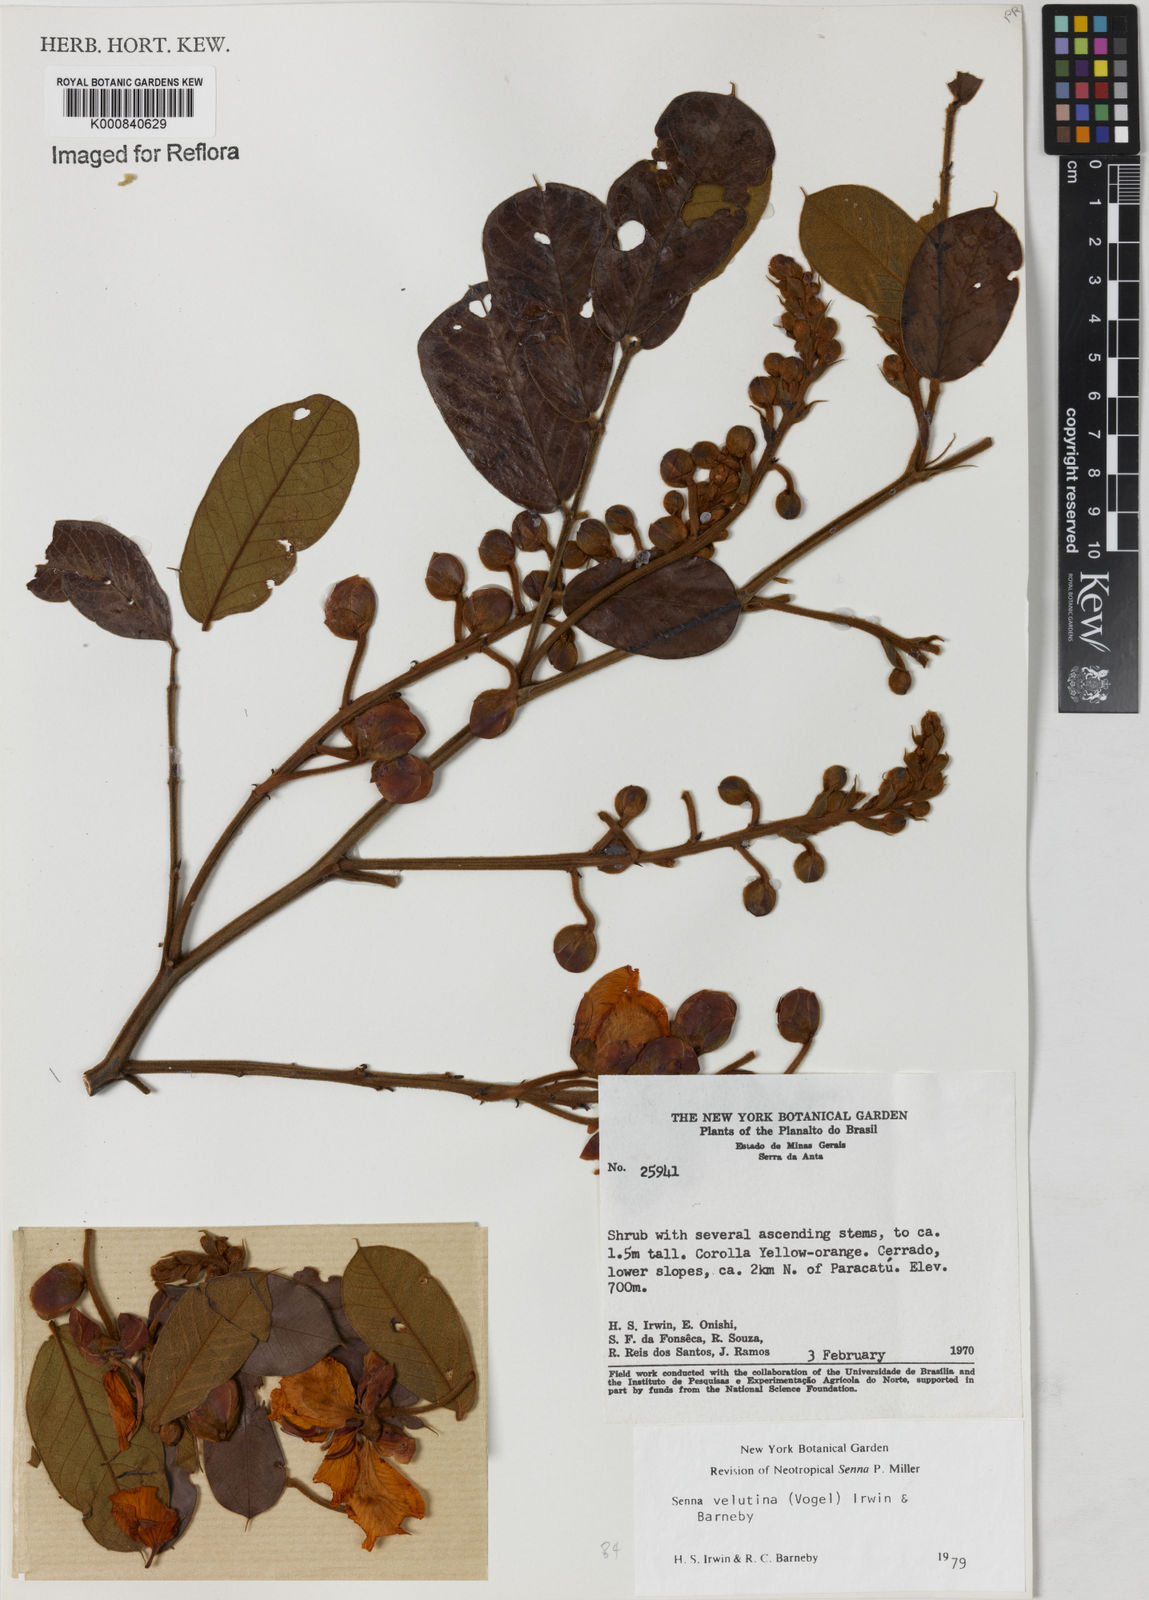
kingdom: Plantae
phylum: Tracheophyta
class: Magnoliopsida
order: Fabales
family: Fabaceae
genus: Senna
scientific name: Senna velutina
